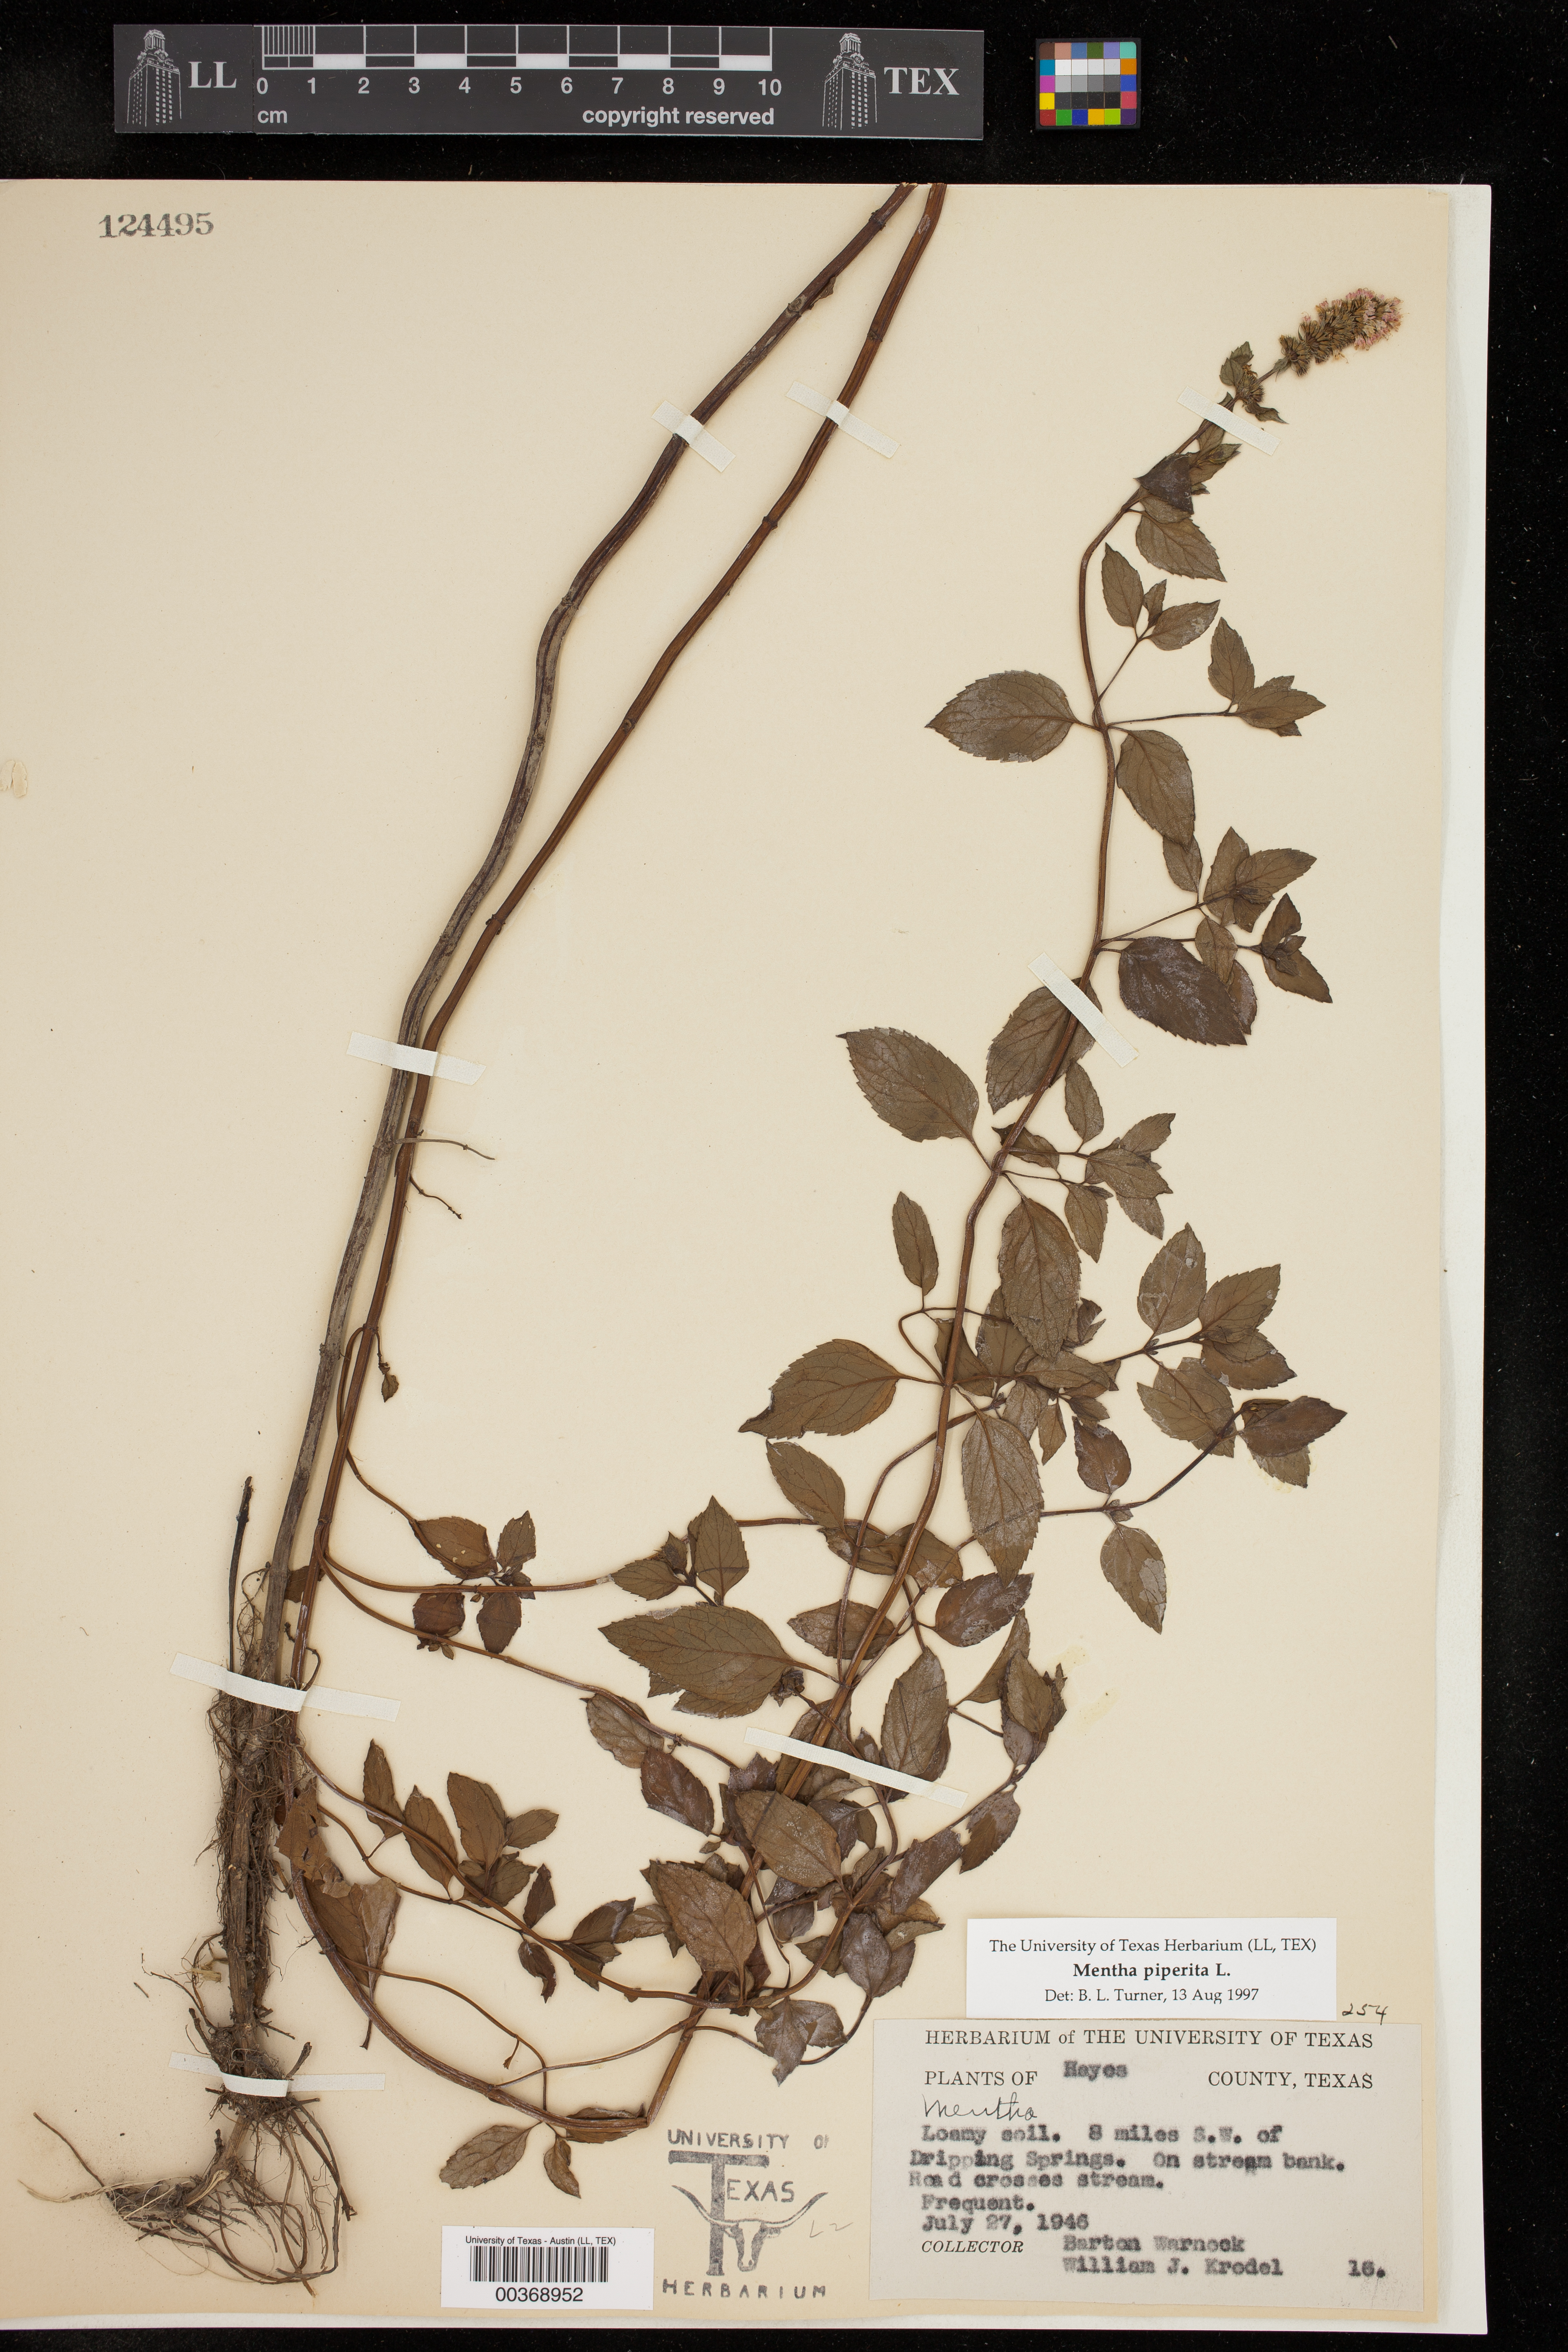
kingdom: Plantae
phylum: Tracheophyta
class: Magnoliopsida
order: Lamiales
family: Lamiaceae
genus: Mentha
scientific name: Mentha piperita
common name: Peppermint
